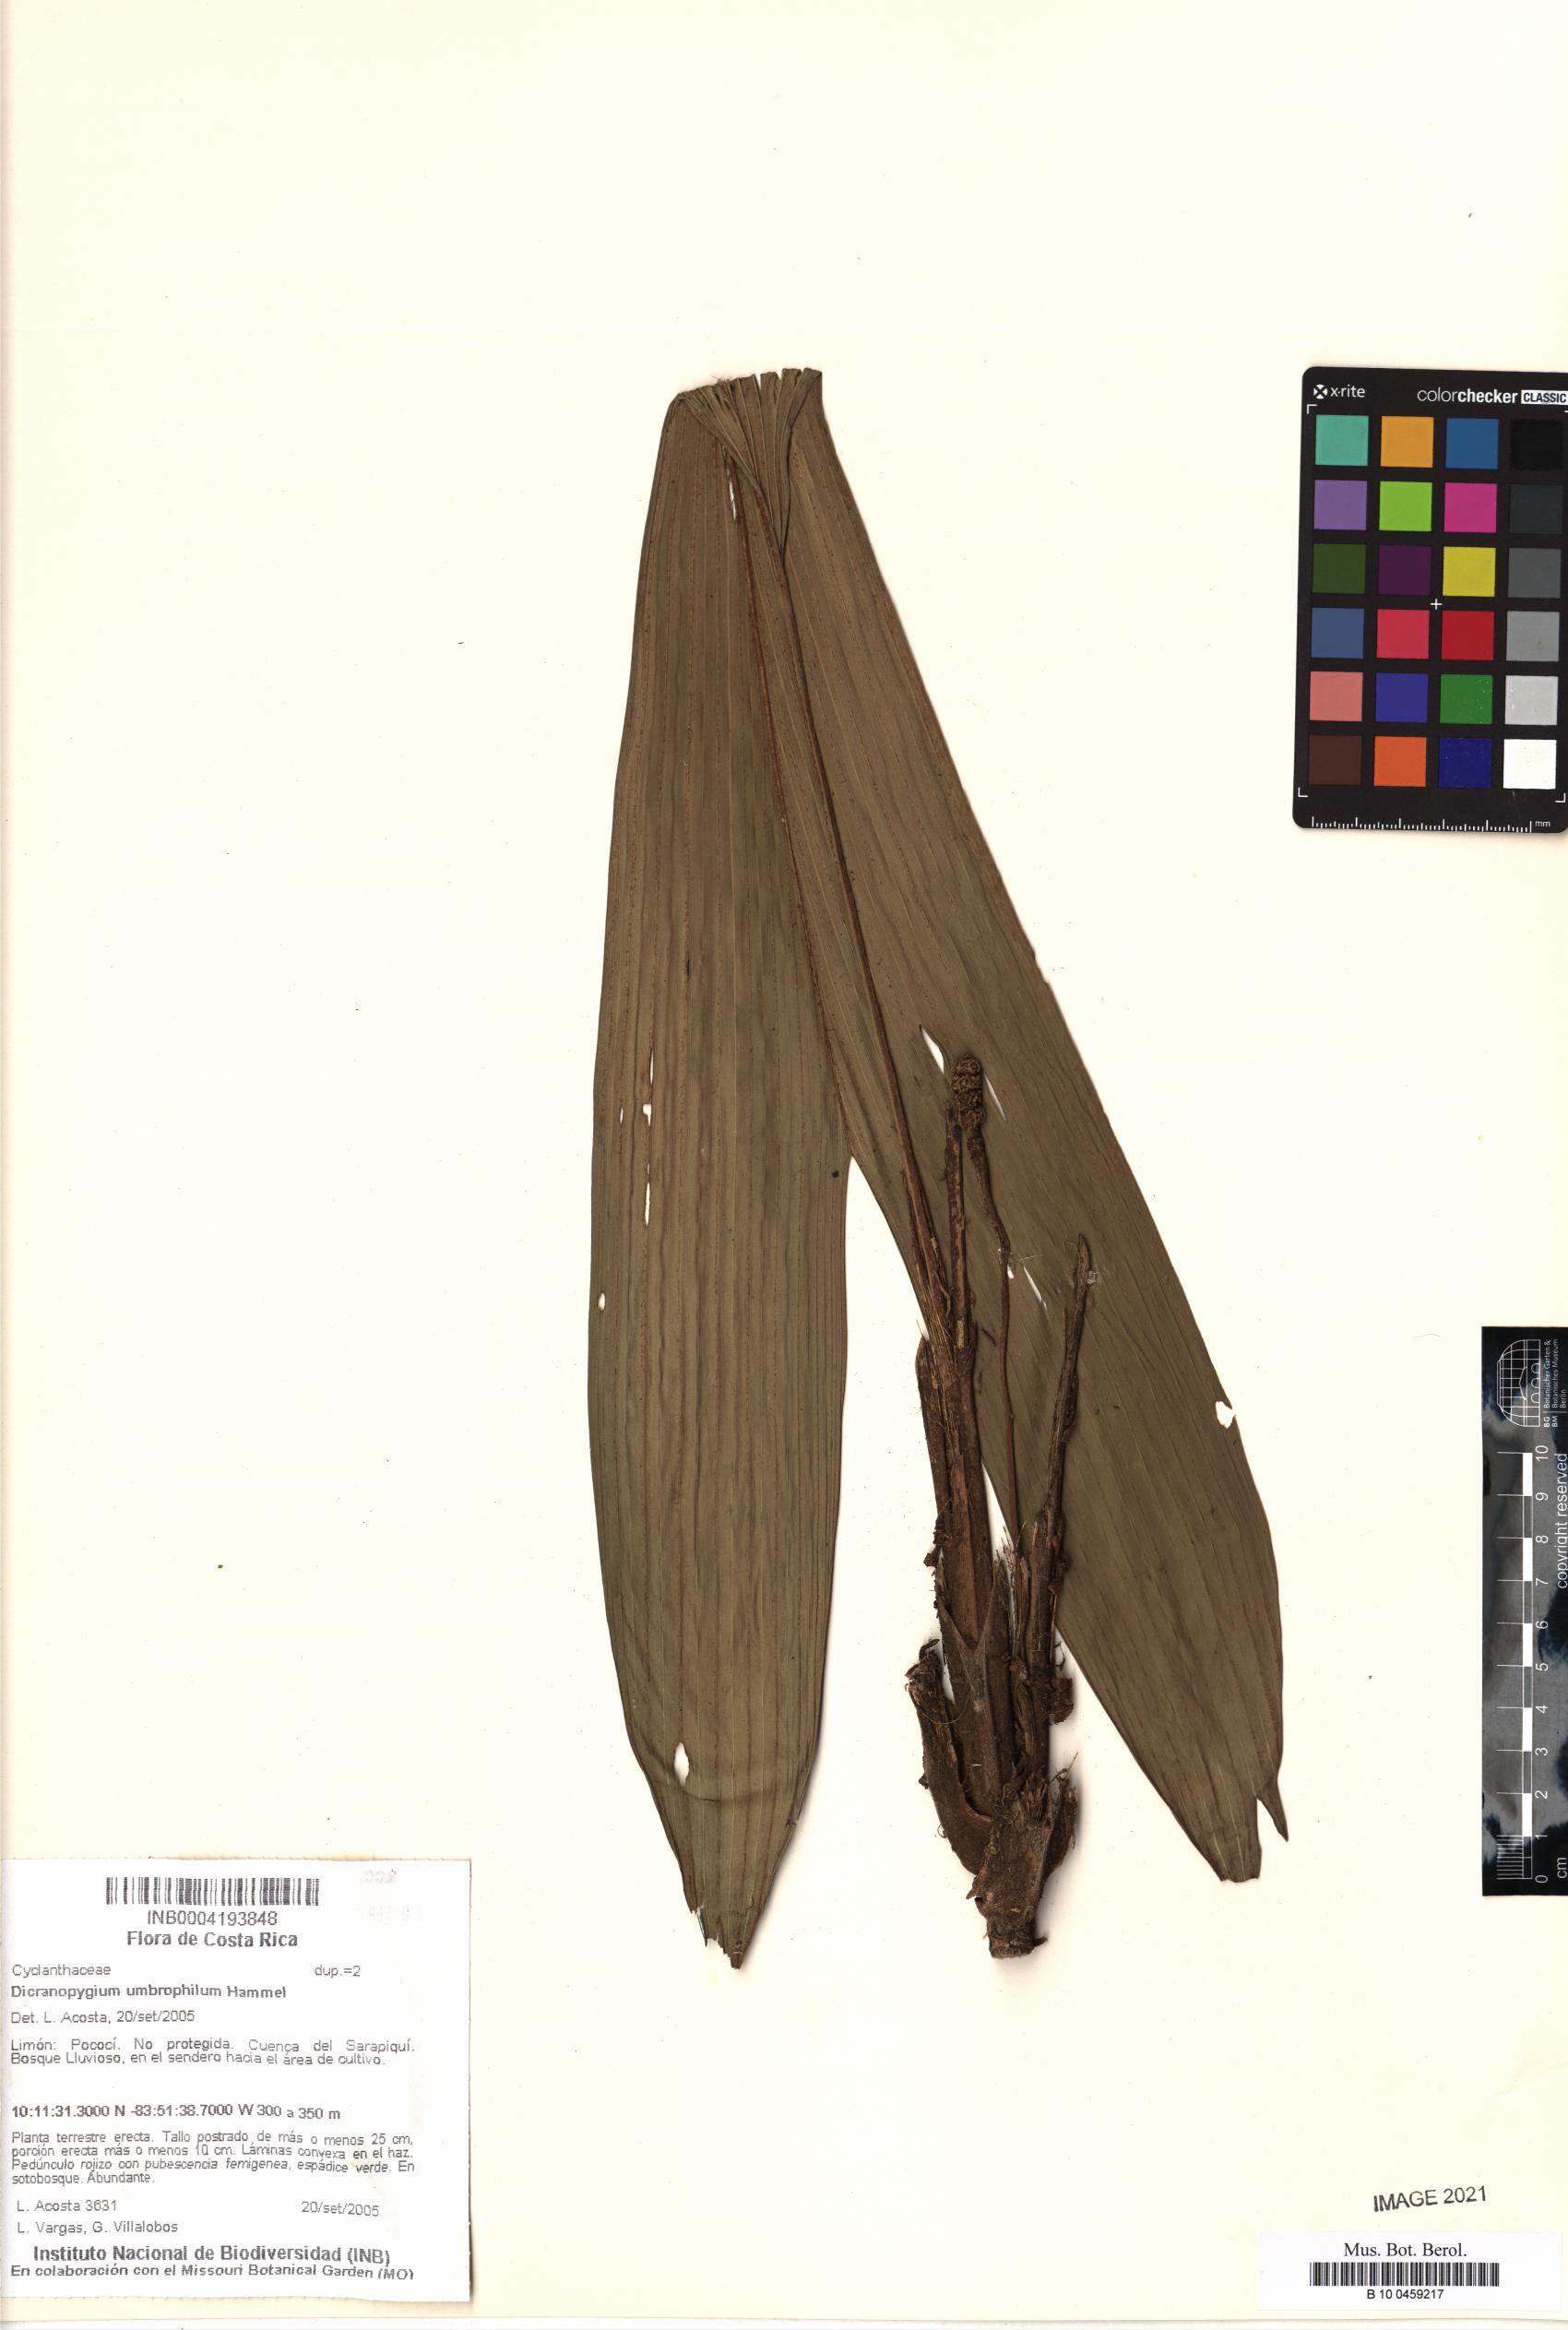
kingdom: Plantae
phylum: Tracheophyta
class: Liliopsida
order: Pandanales
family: Cyclanthaceae
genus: Dicranopygium
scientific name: Dicranopygium umbrophilum
